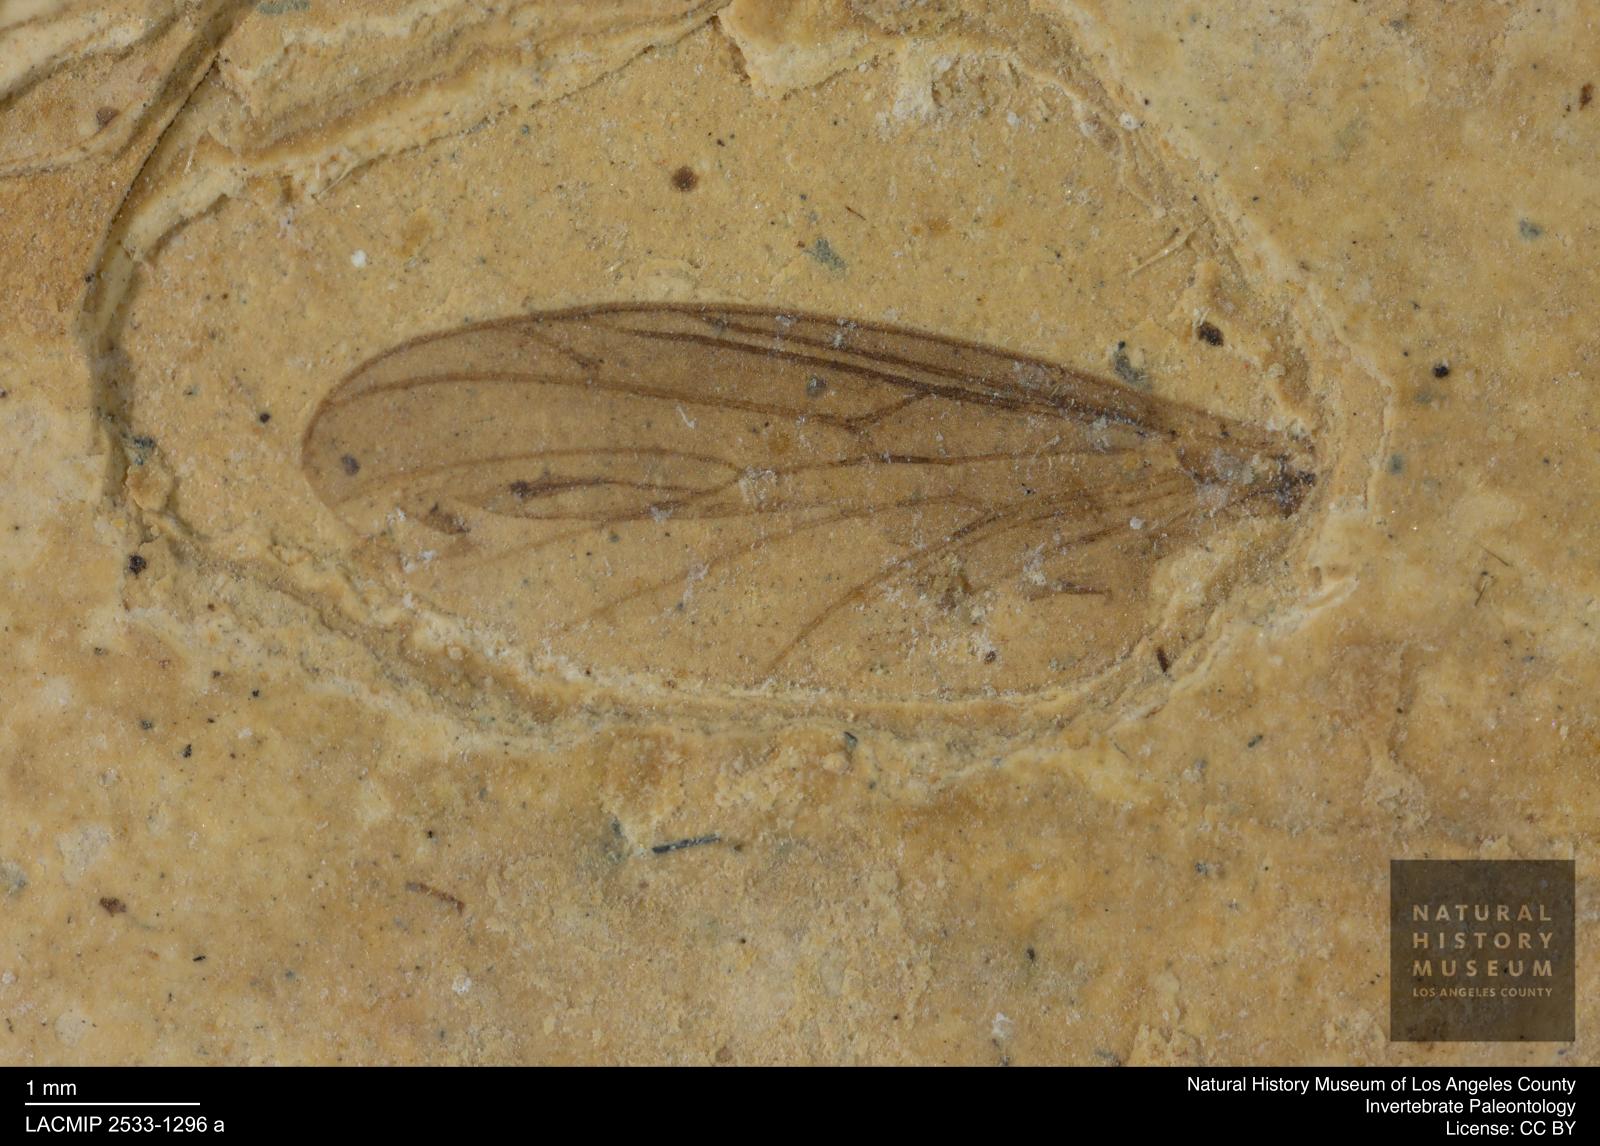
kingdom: Animalia
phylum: Arthropoda
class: Insecta
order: Diptera
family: Bibionidae
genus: Plecia
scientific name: Plecia pinguis
